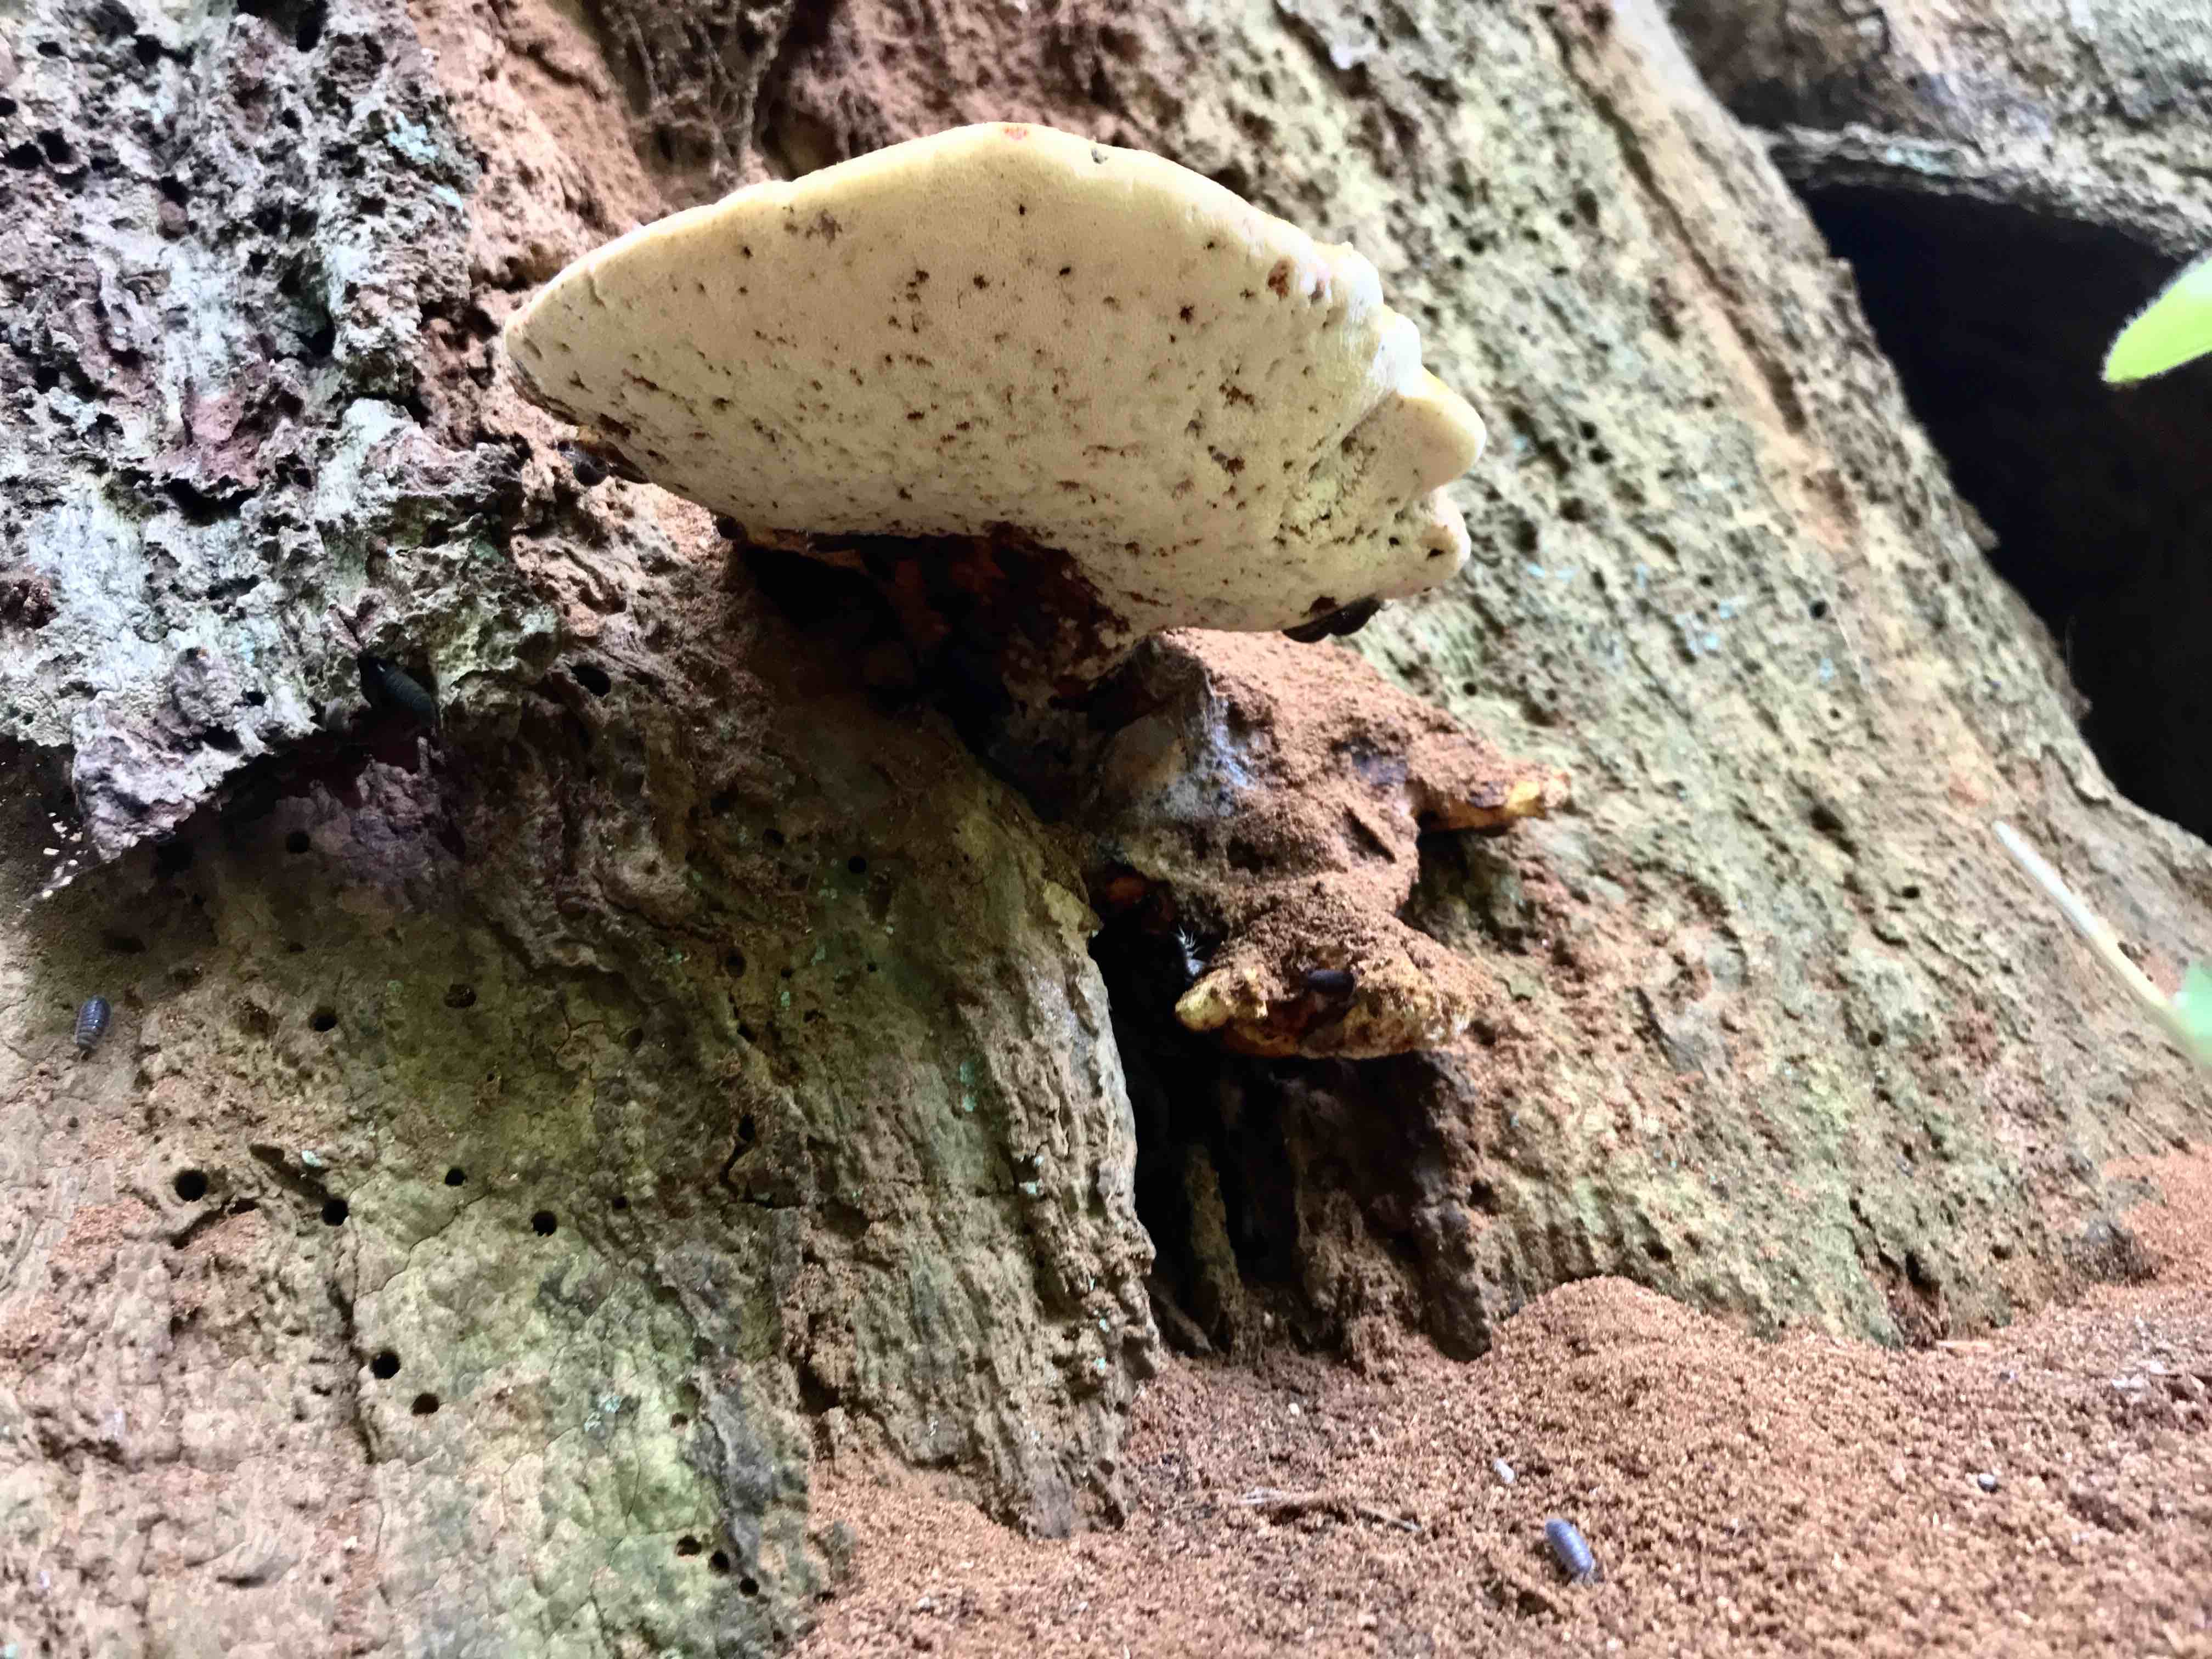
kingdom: Fungi
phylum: Basidiomycota
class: Agaricomycetes
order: Polyporales
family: Fomitopsidaceae
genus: Buglossoporus
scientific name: Buglossoporus quercinus
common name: egetunge
